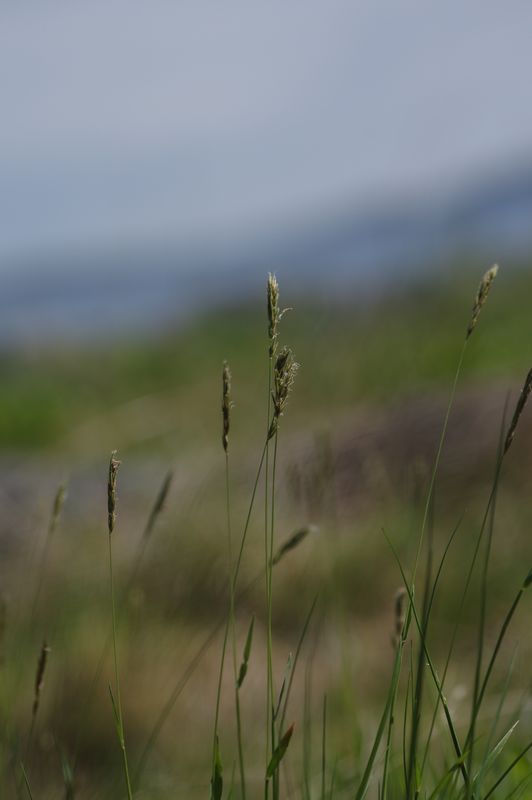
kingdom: Plantae
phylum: Tracheophyta
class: Liliopsida
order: Poales
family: Poaceae
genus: Anthoxanthum
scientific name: Anthoxanthum nipponicum
